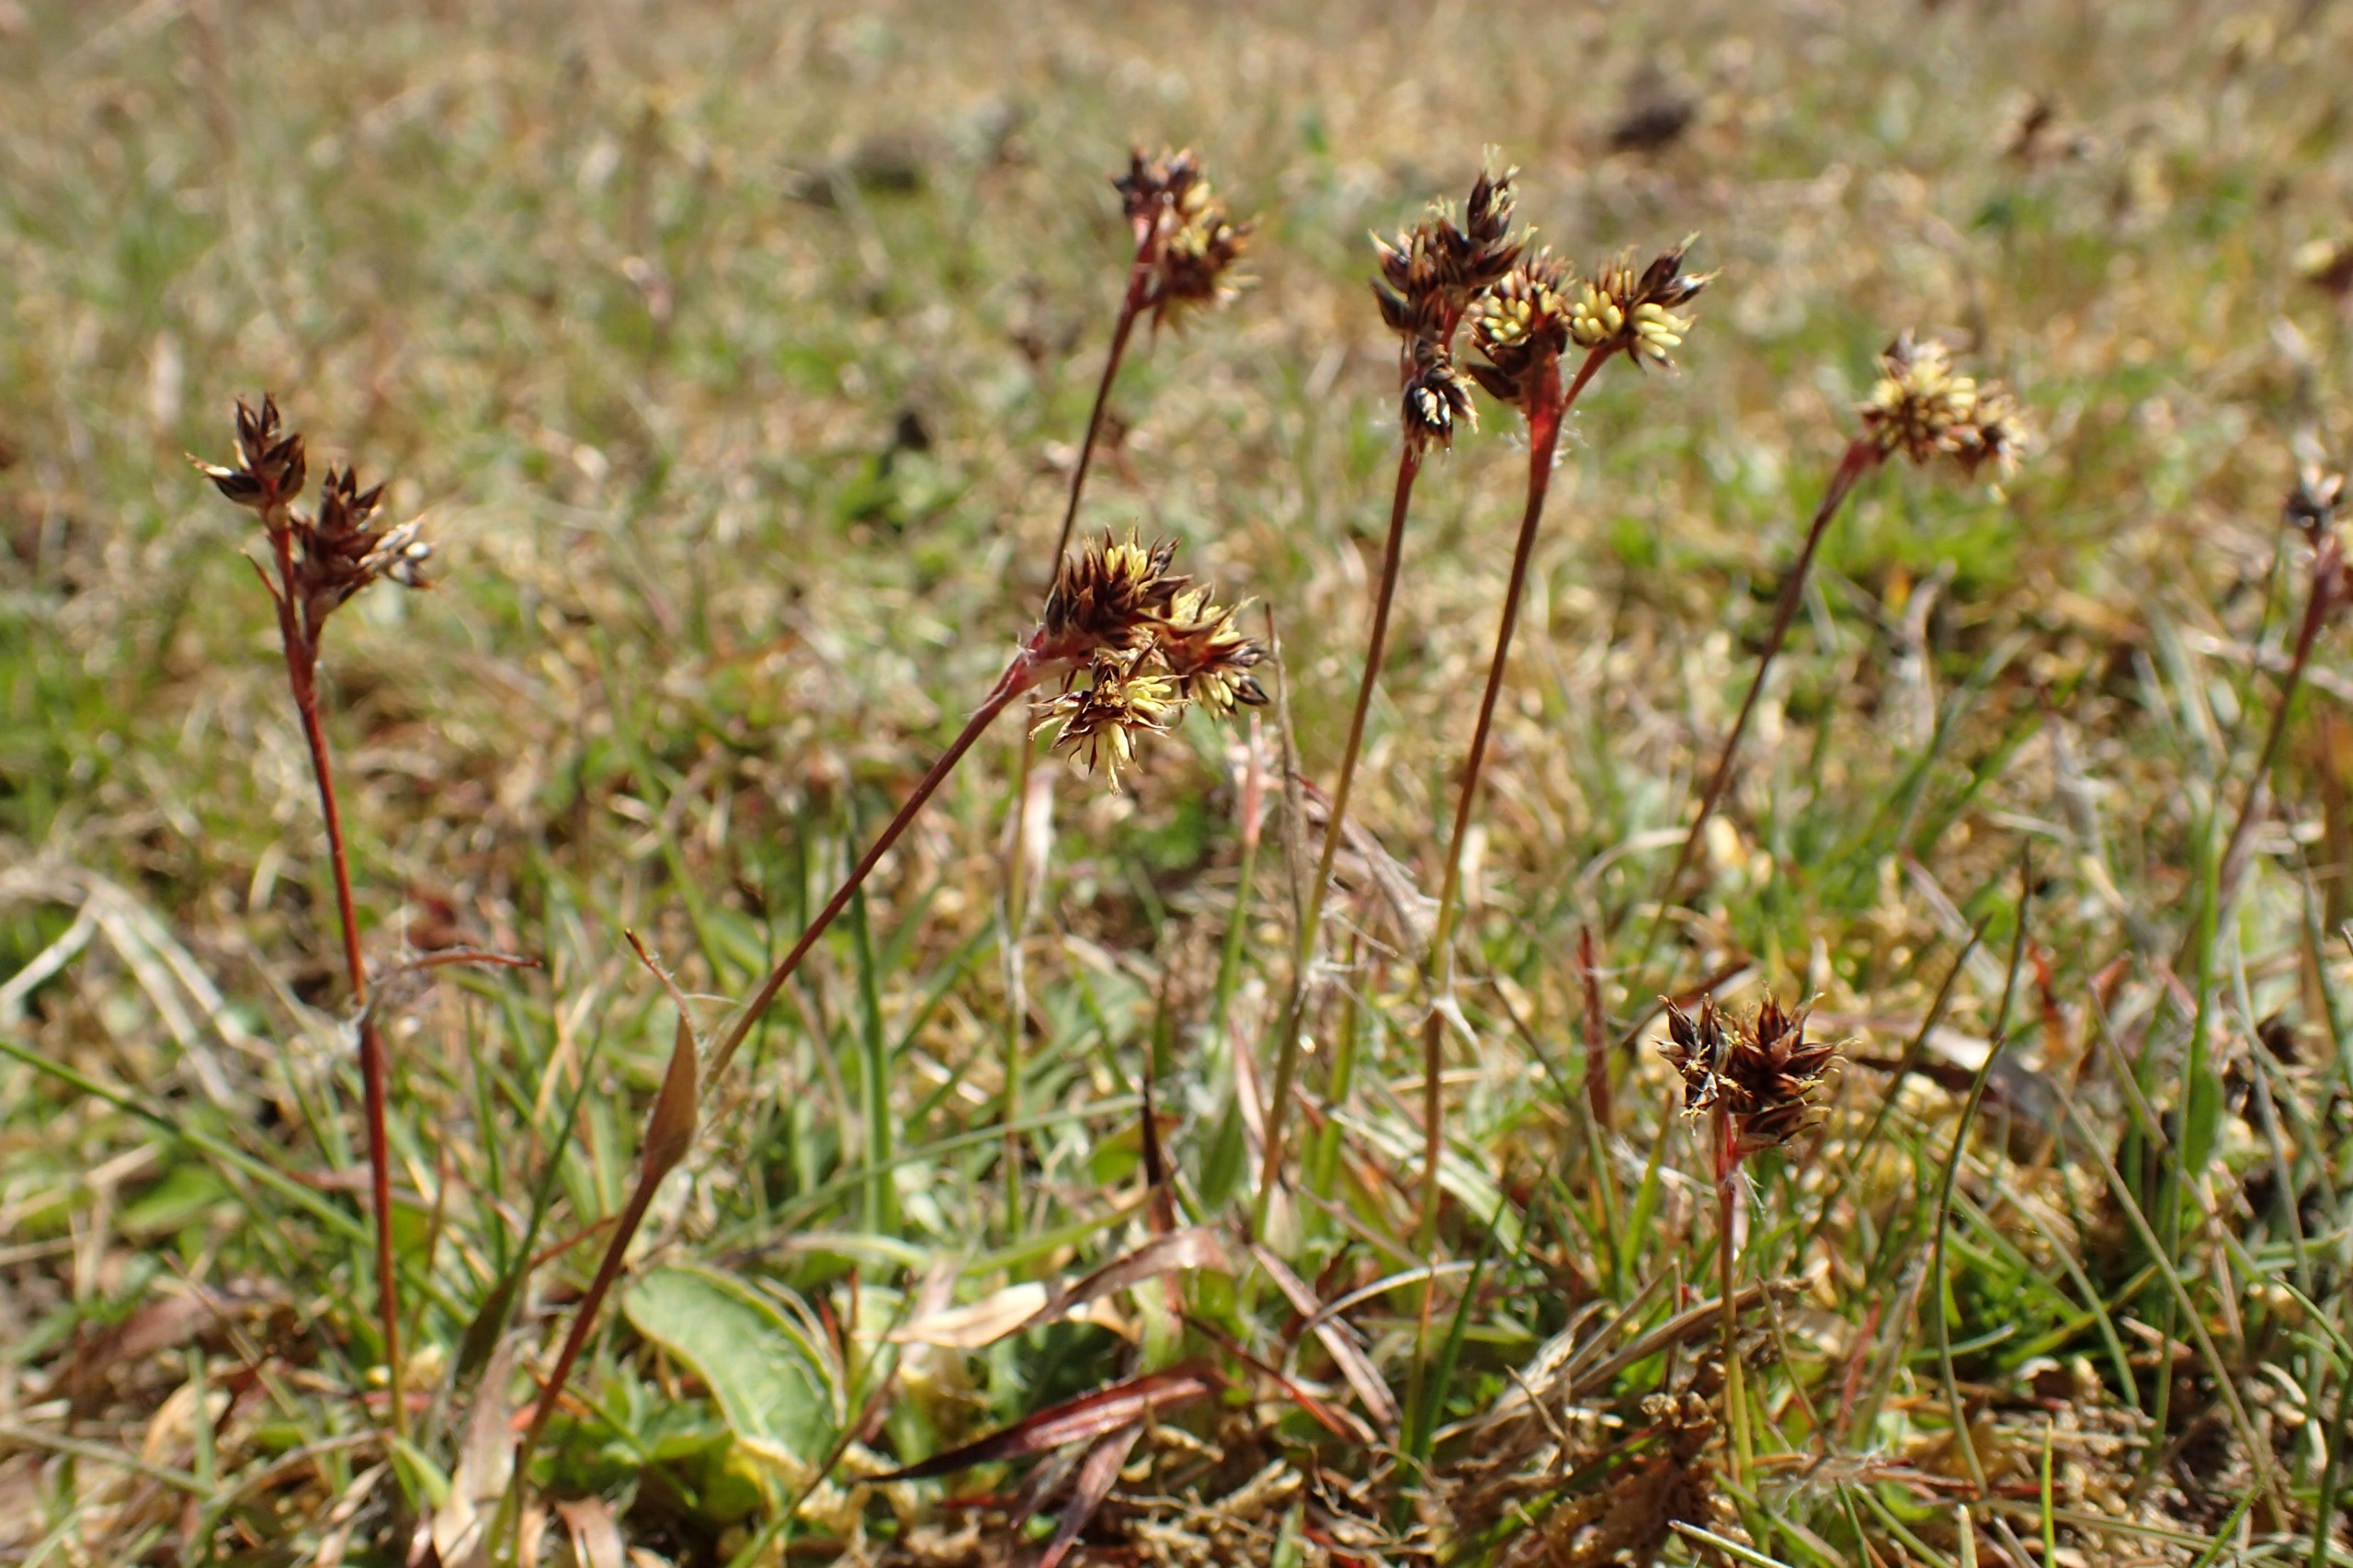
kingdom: Plantae
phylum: Tracheophyta
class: Liliopsida
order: Poales
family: Juncaceae
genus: Luzula
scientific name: Luzula campestris
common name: Mark-frytle
